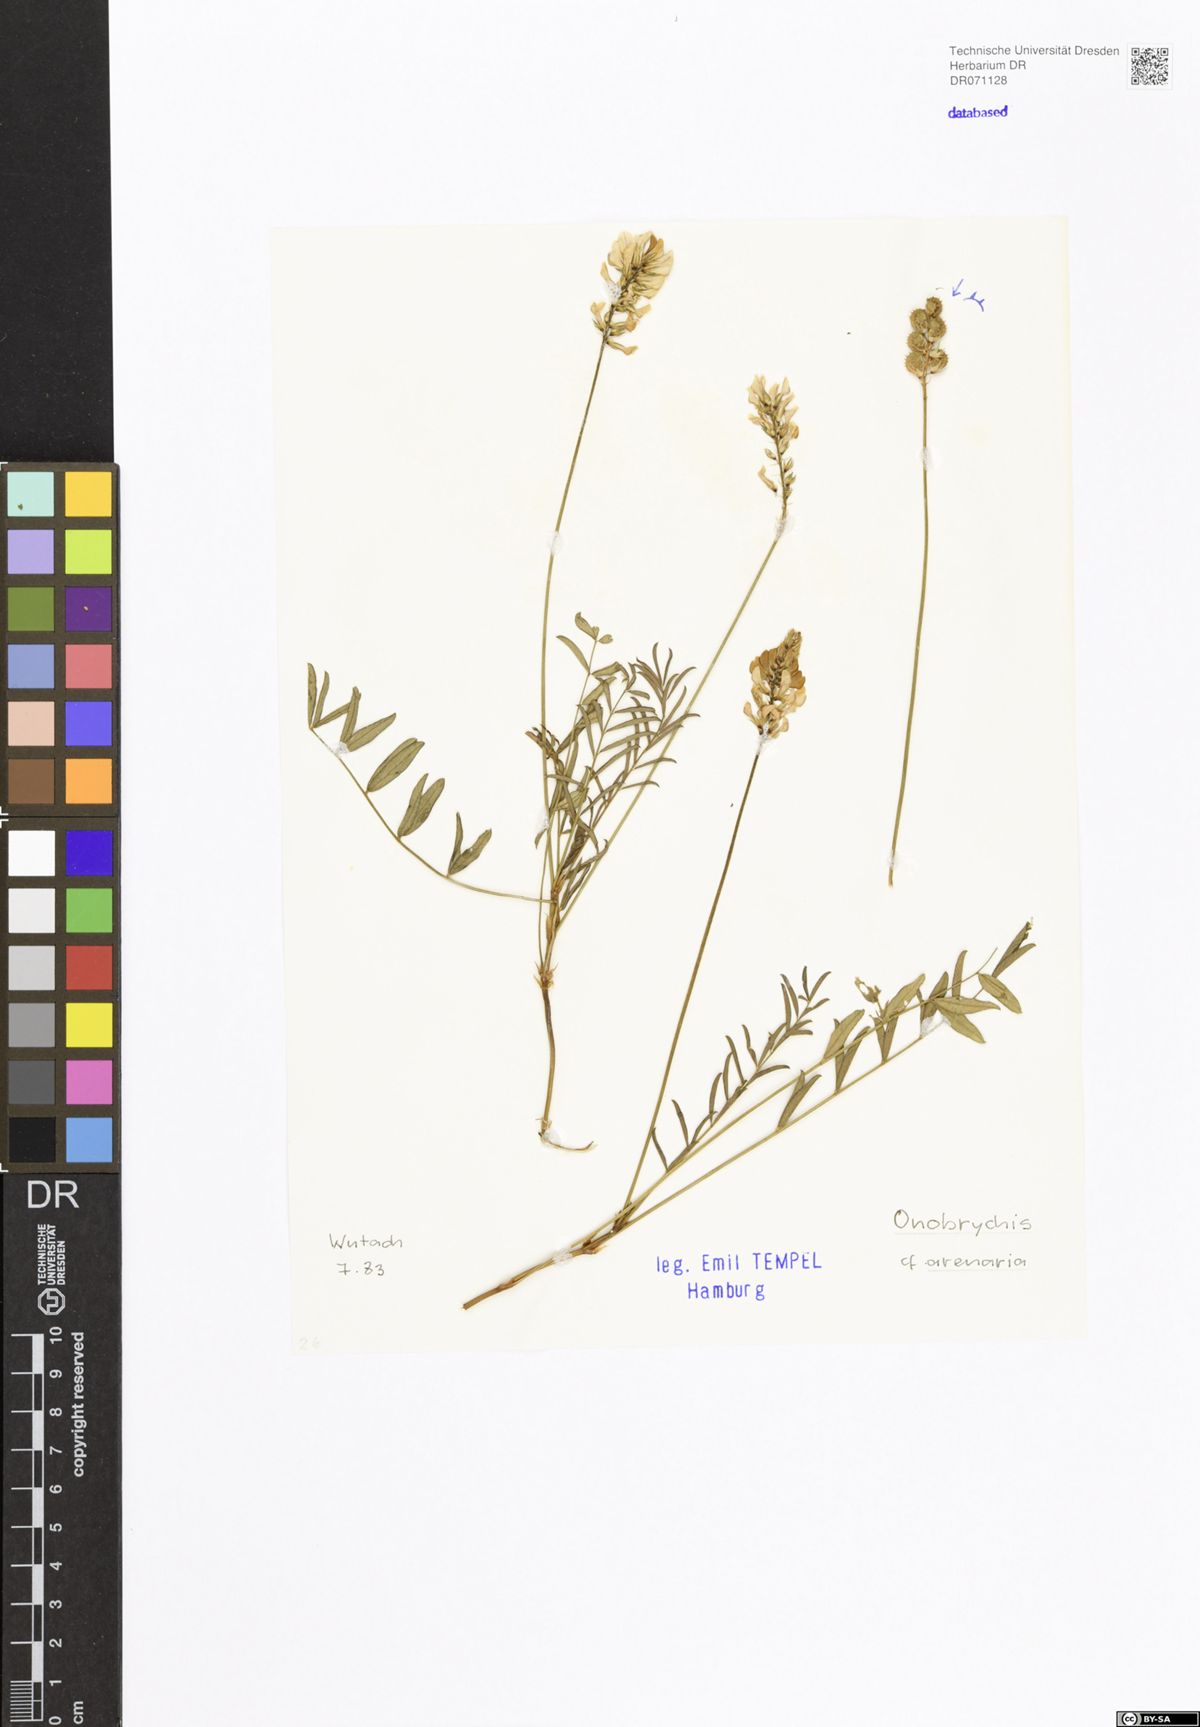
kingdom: Plantae
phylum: Tracheophyta
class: Magnoliopsida
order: Fabales
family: Fabaceae
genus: Onobrychis
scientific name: Onobrychis arenaria
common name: Sand esparcet
